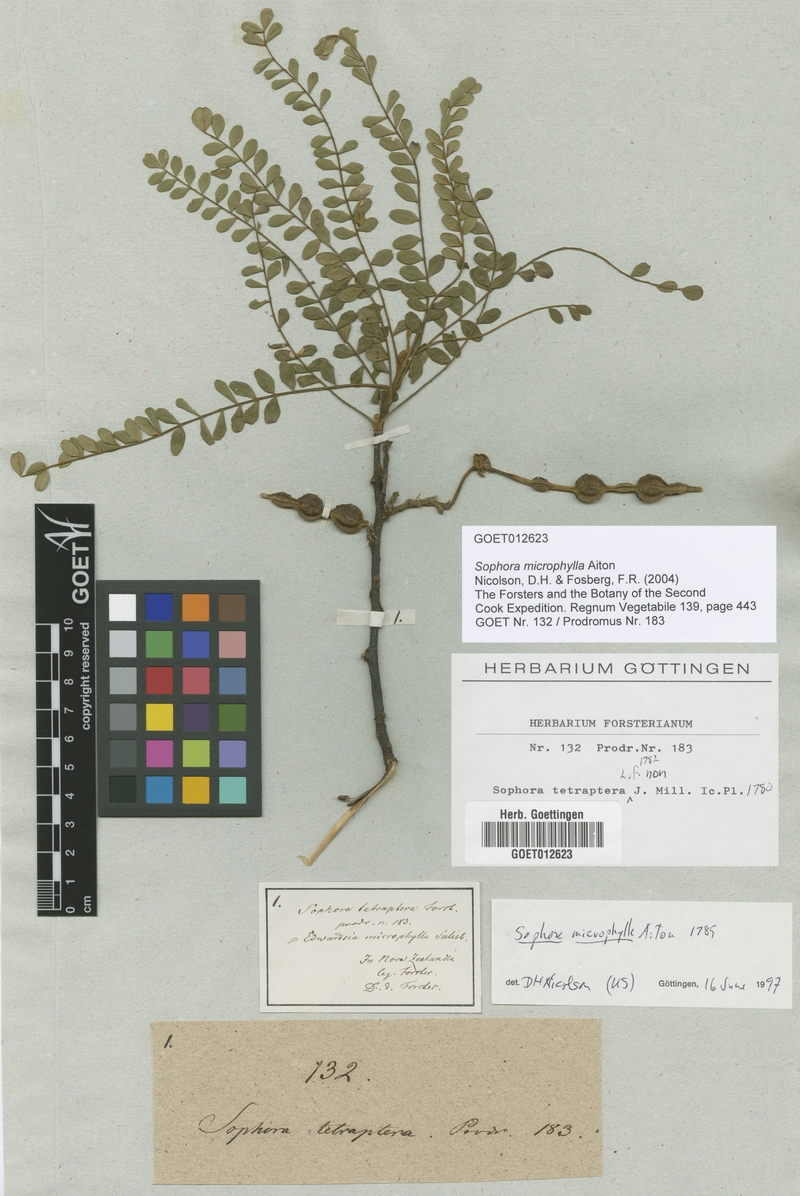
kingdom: Plantae
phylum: Tracheophyta
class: Magnoliopsida
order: Fabales
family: Fabaceae
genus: Sophora
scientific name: Sophora microphylla
